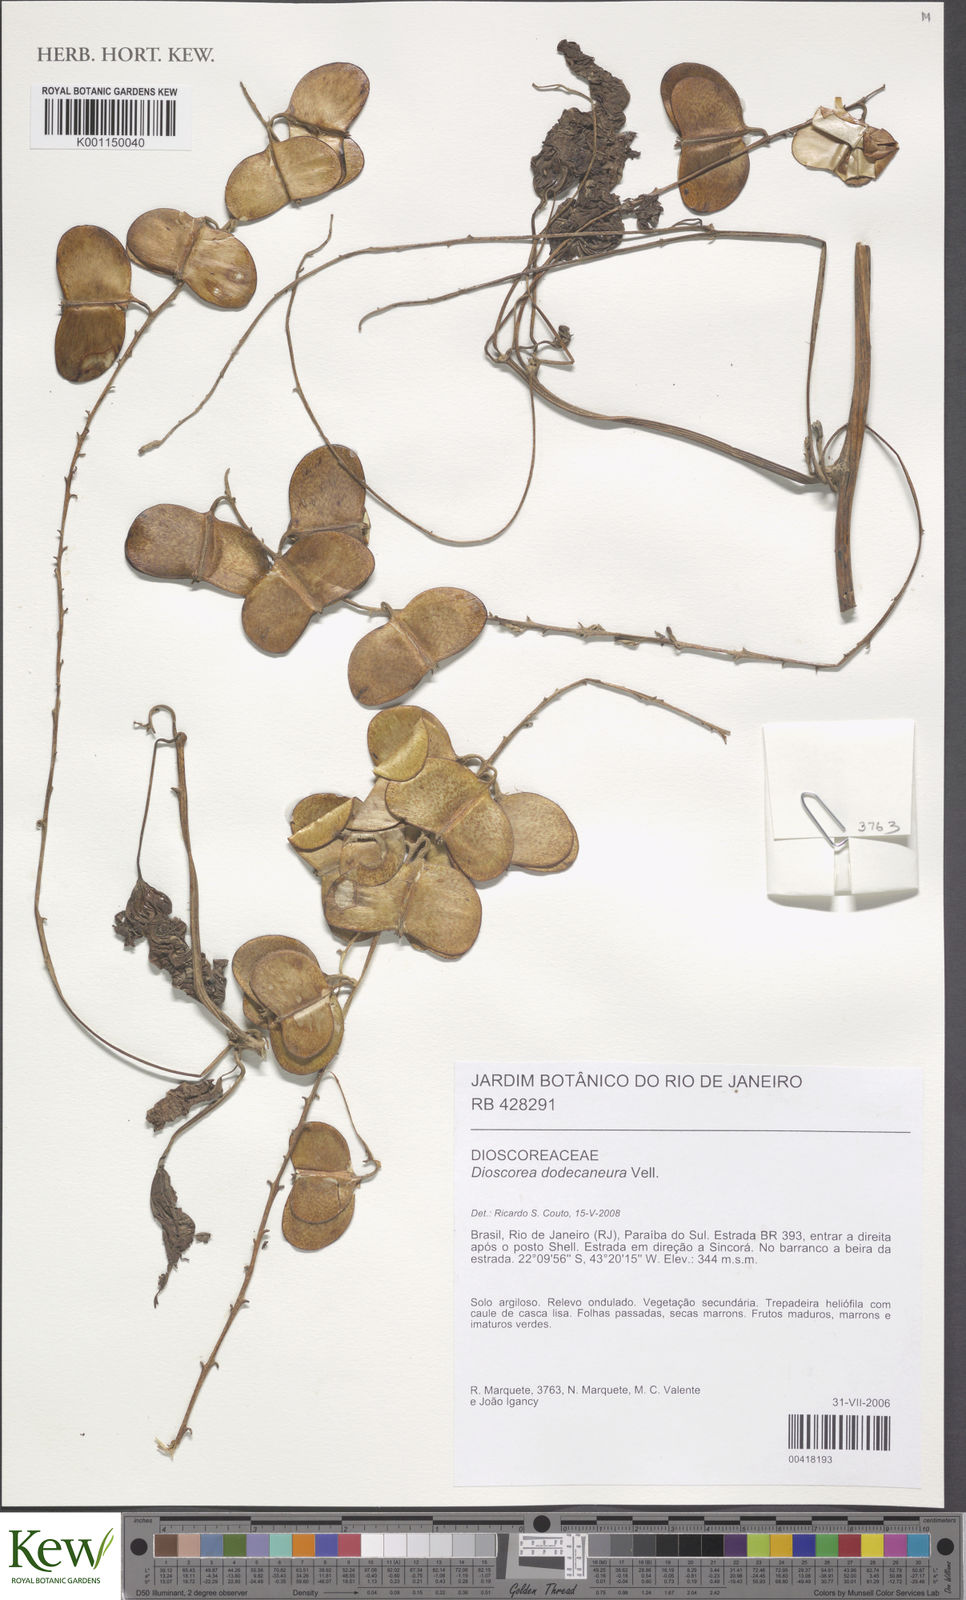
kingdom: Plantae
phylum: Tracheophyta
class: Liliopsida
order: Dioscoreales
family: Dioscoreaceae
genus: Dioscorea
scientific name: Dioscorea dodecaneura
